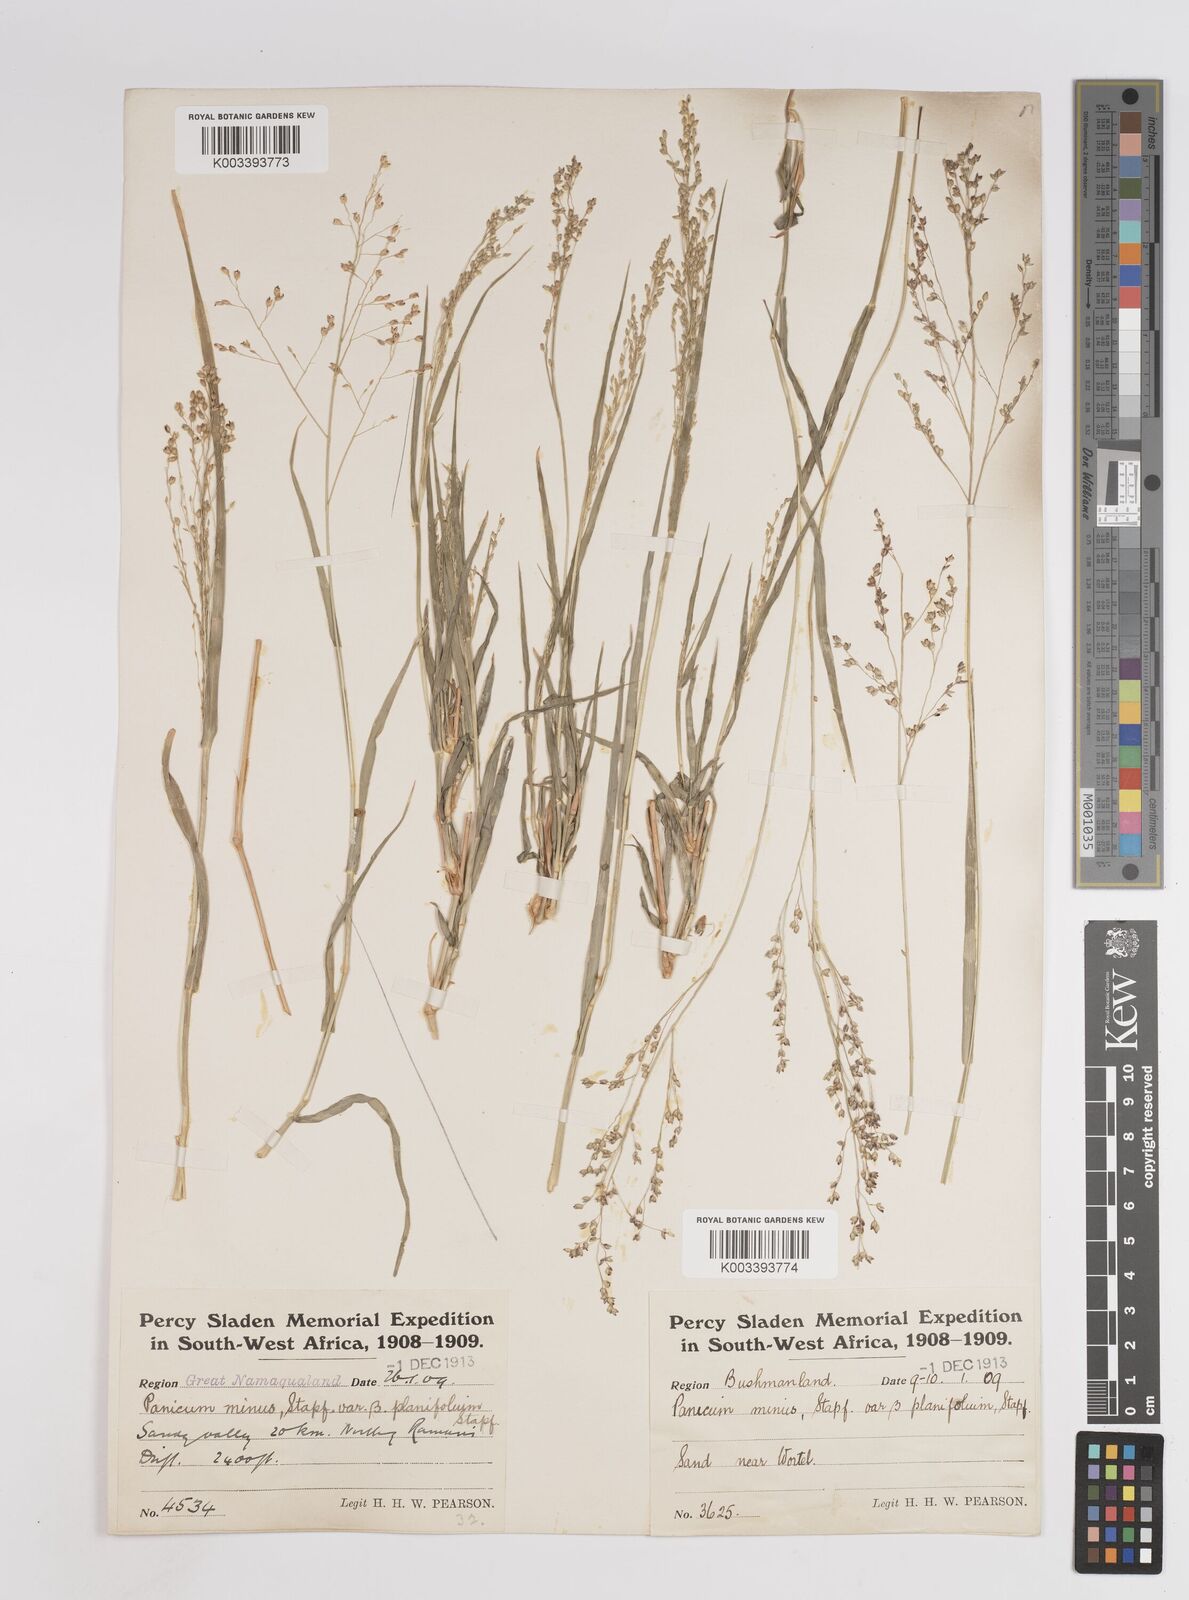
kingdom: Plantae
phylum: Tracheophyta
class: Liliopsida
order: Poales
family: Poaceae
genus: Panicum
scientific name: Panicum arbusculum
